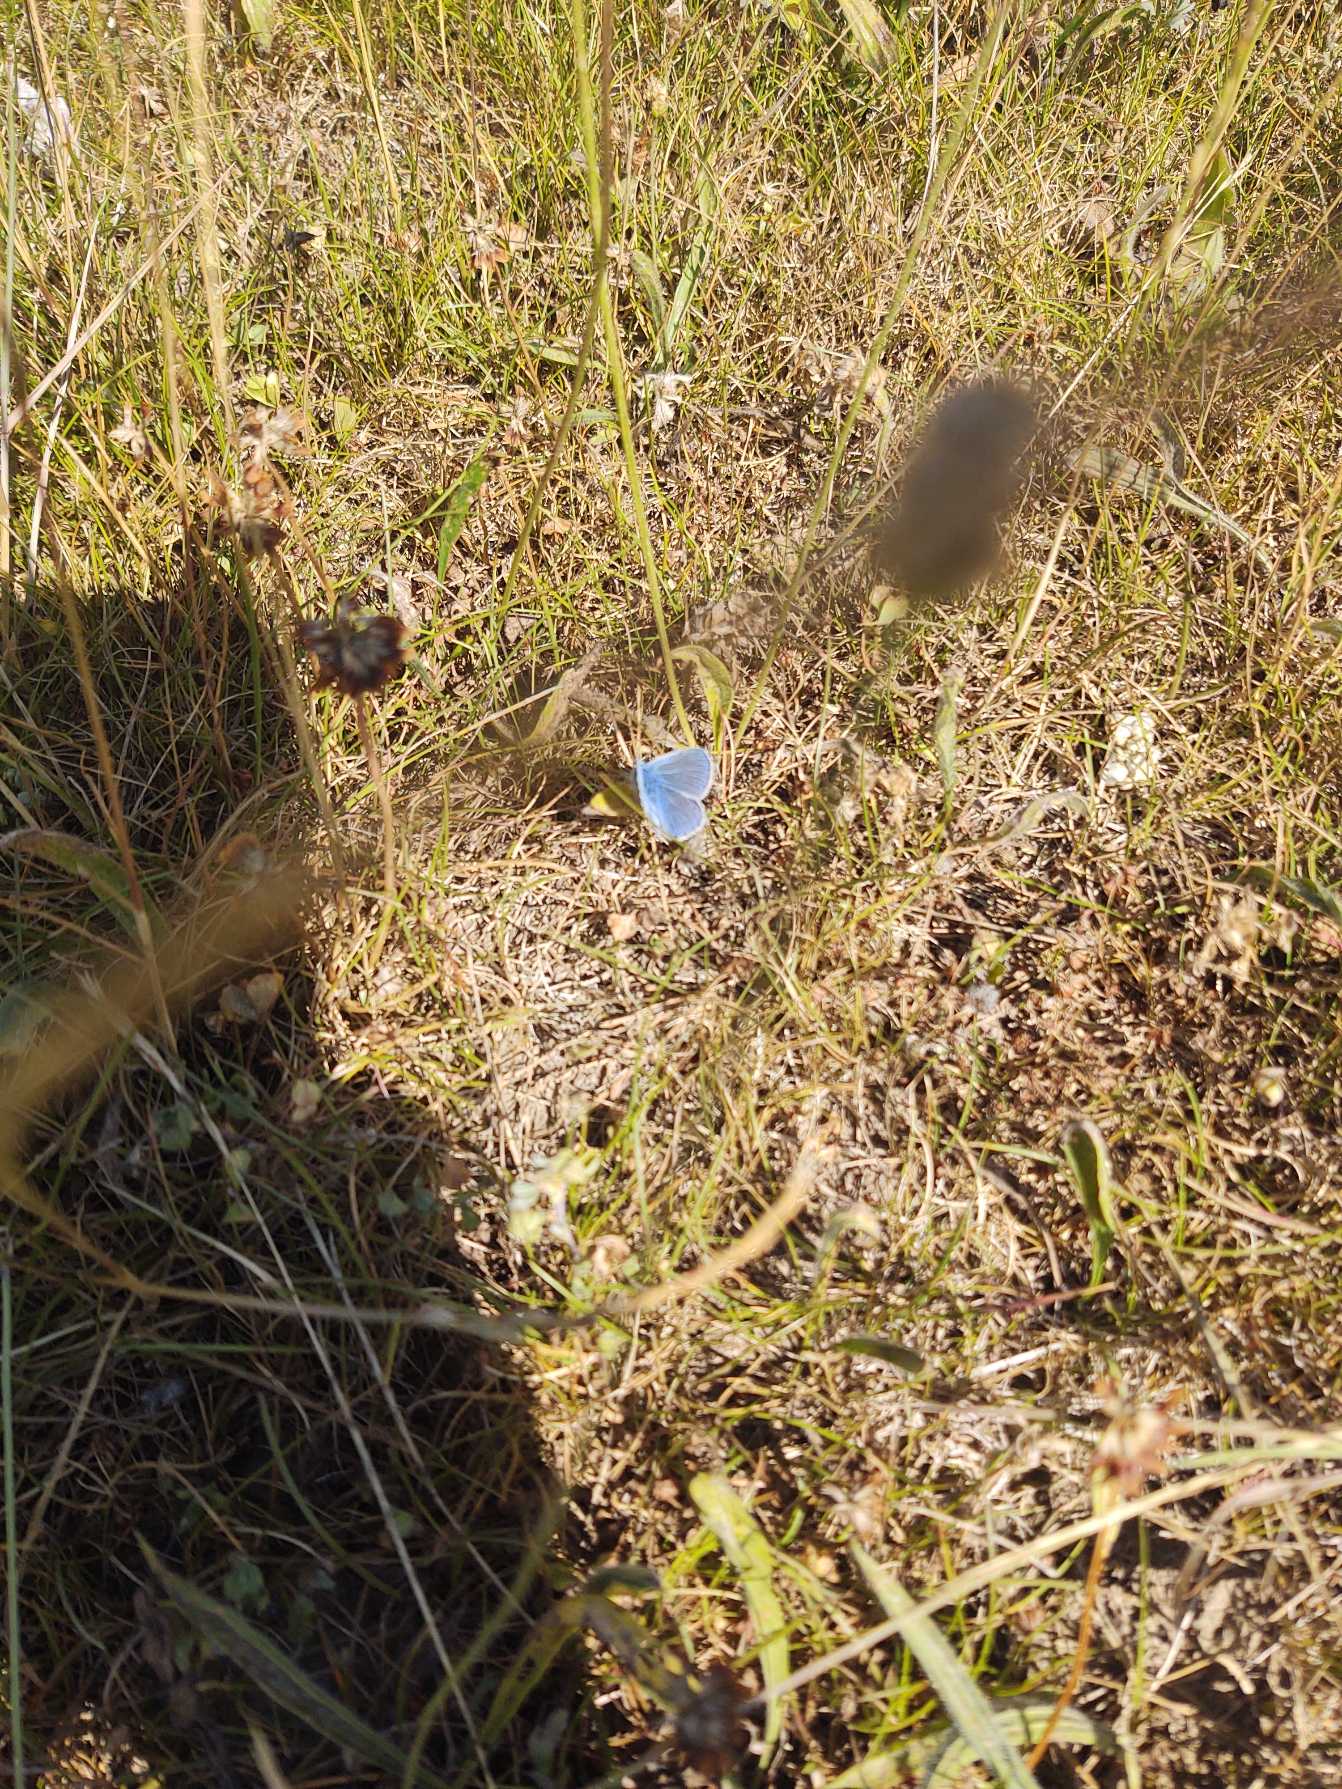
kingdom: Animalia
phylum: Arthropoda
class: Insecta
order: Lepidoptera
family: Lycaenidae
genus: Polyommatus
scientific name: Polyommatus icarus
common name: Almindelig blåfugl
